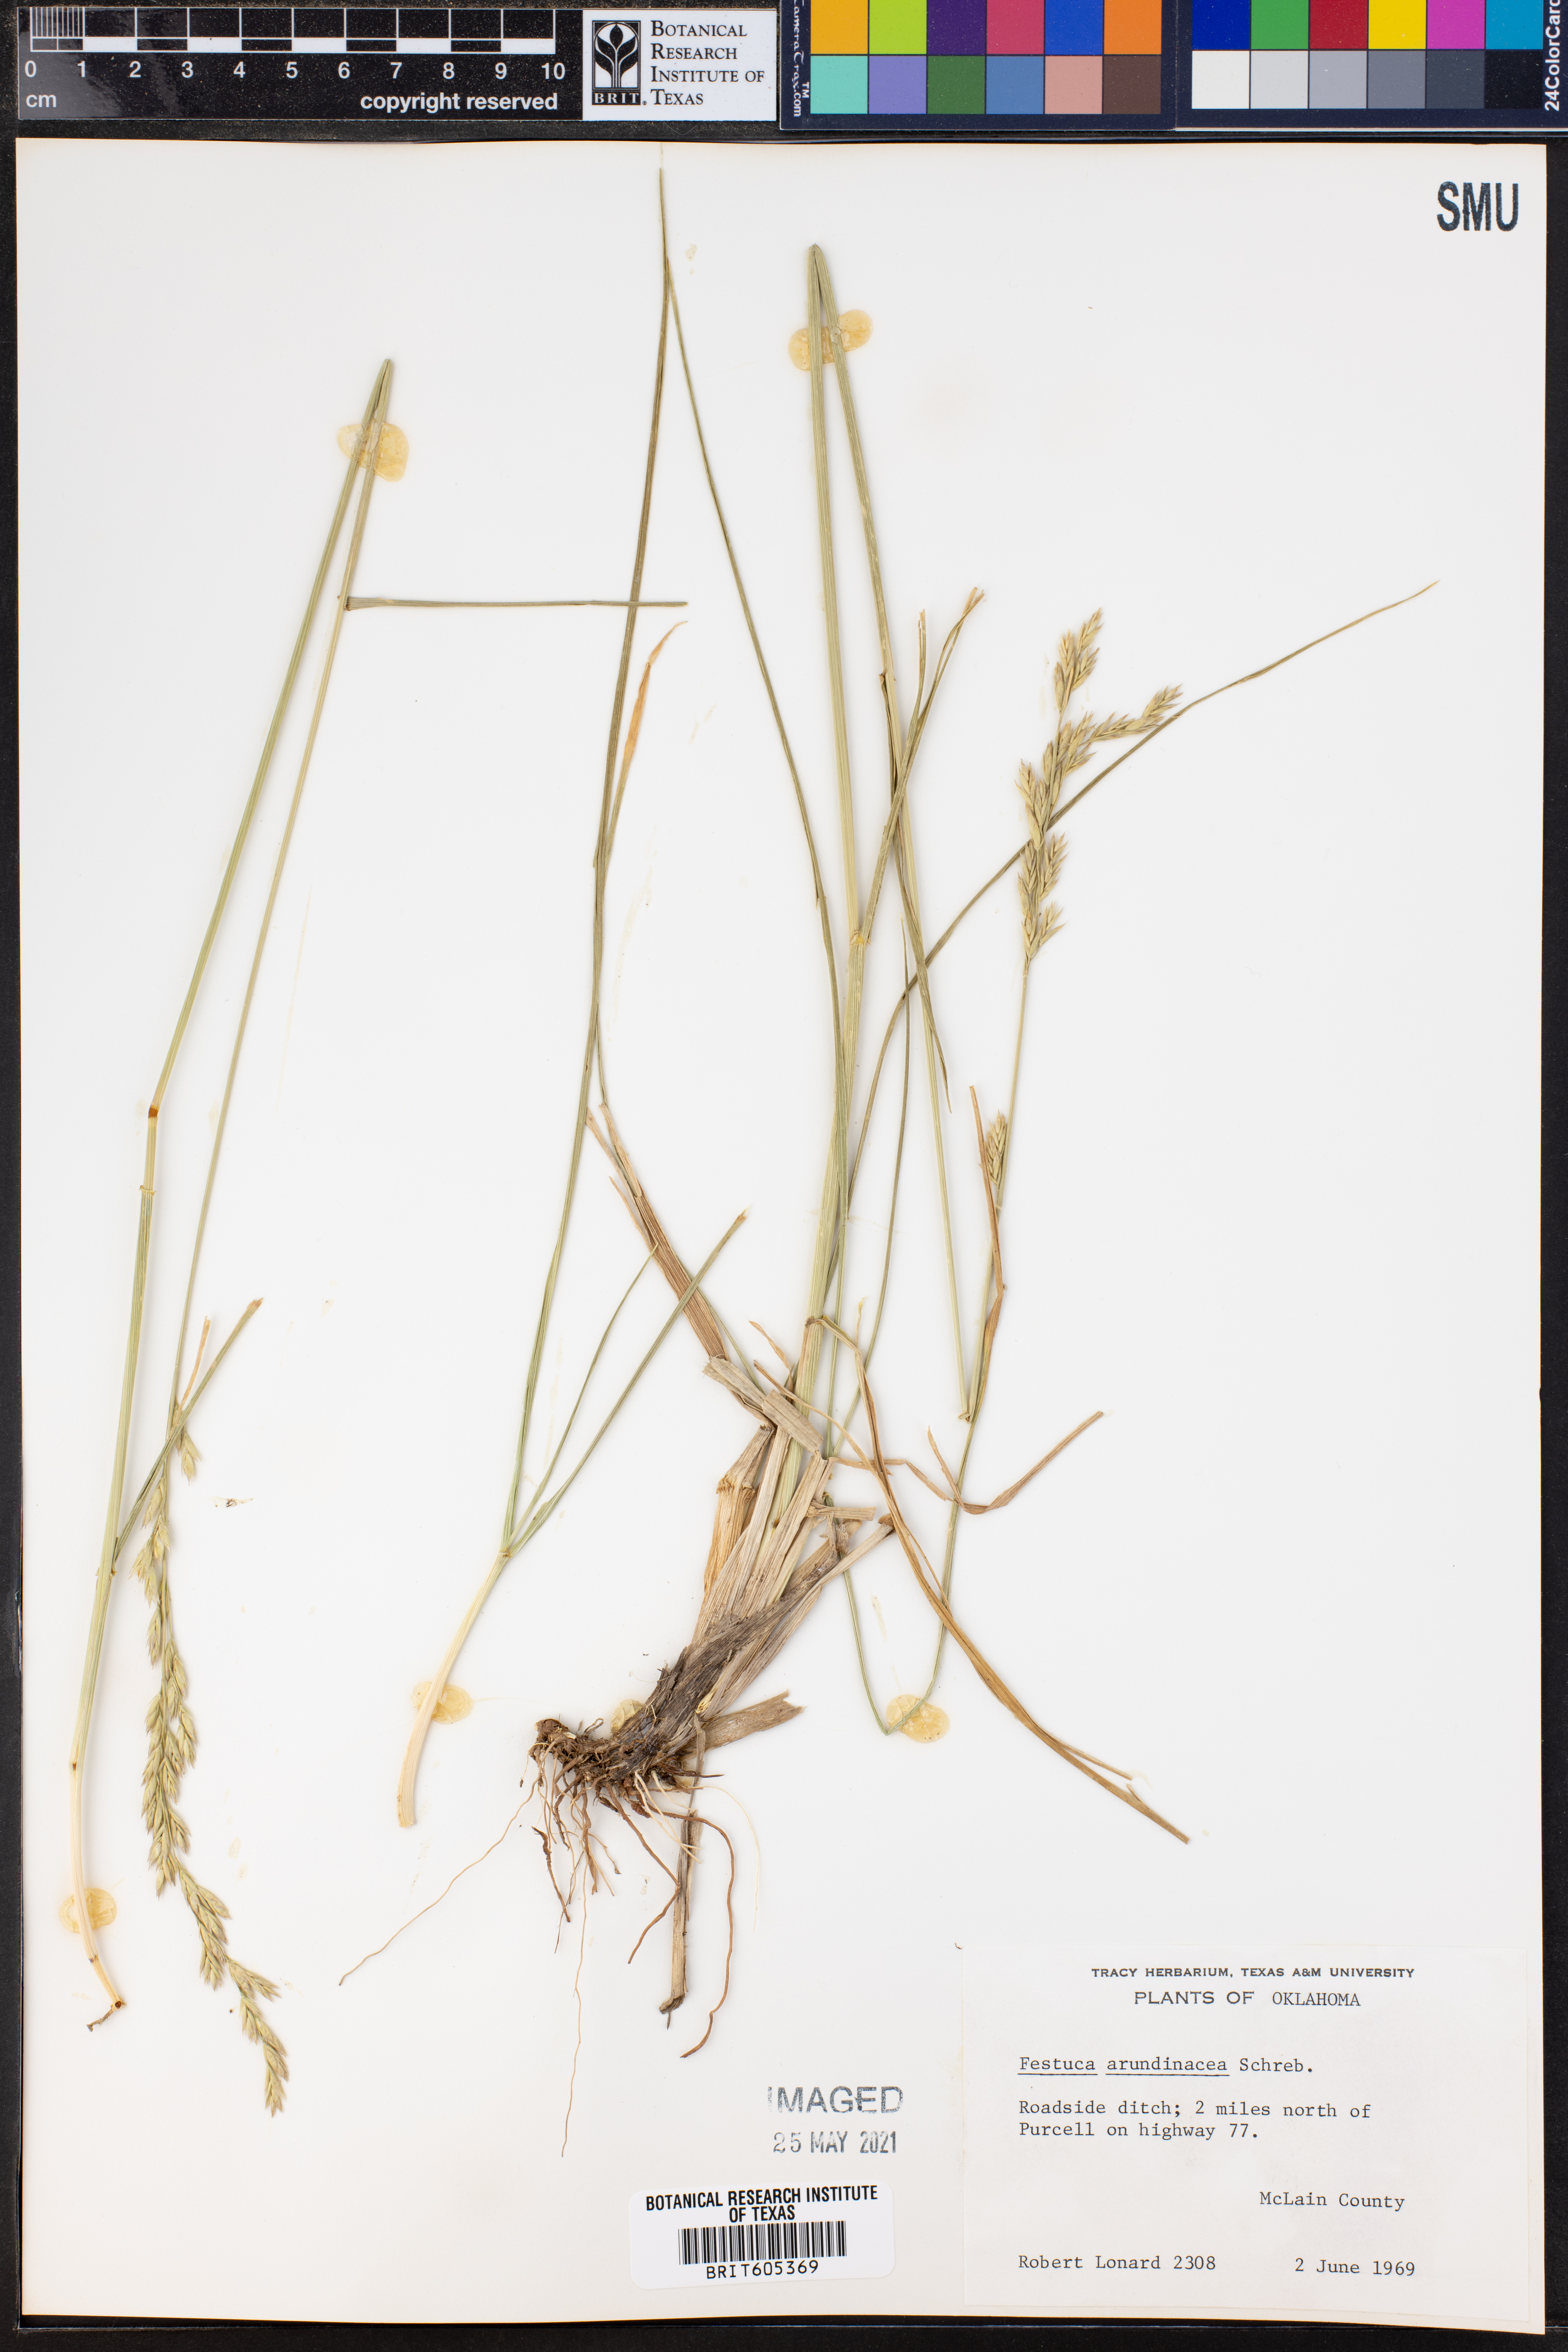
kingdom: Plantae
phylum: Tracheophyta
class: Liliopsida
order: Poales
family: Poaceae
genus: Lolium
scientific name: Lolium arundinaceum
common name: Reed fescue
